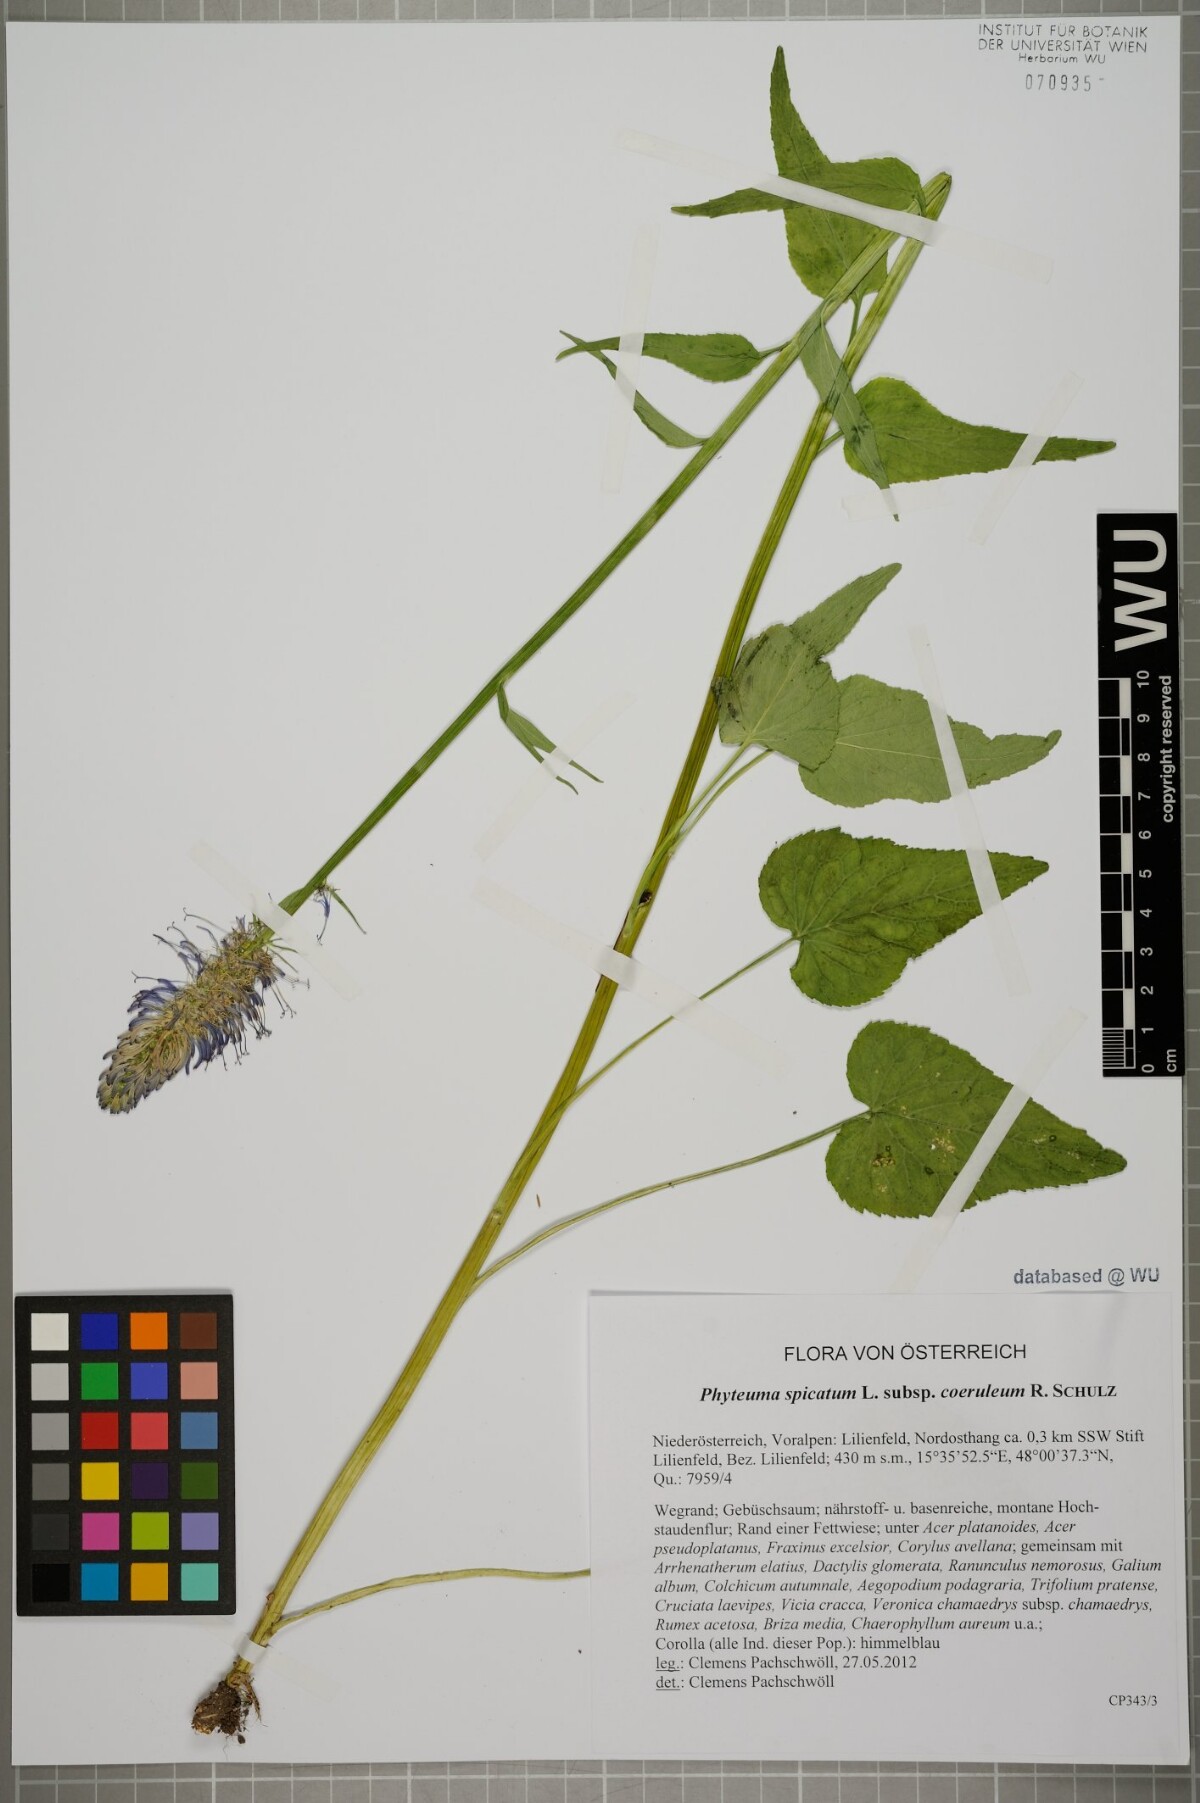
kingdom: Plantae
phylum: Tracheophyta
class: Magnoliopsida
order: Asterales
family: Campanulaceae
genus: Phyteuma
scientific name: Phyteuma spicatum
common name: Spiked rampion
